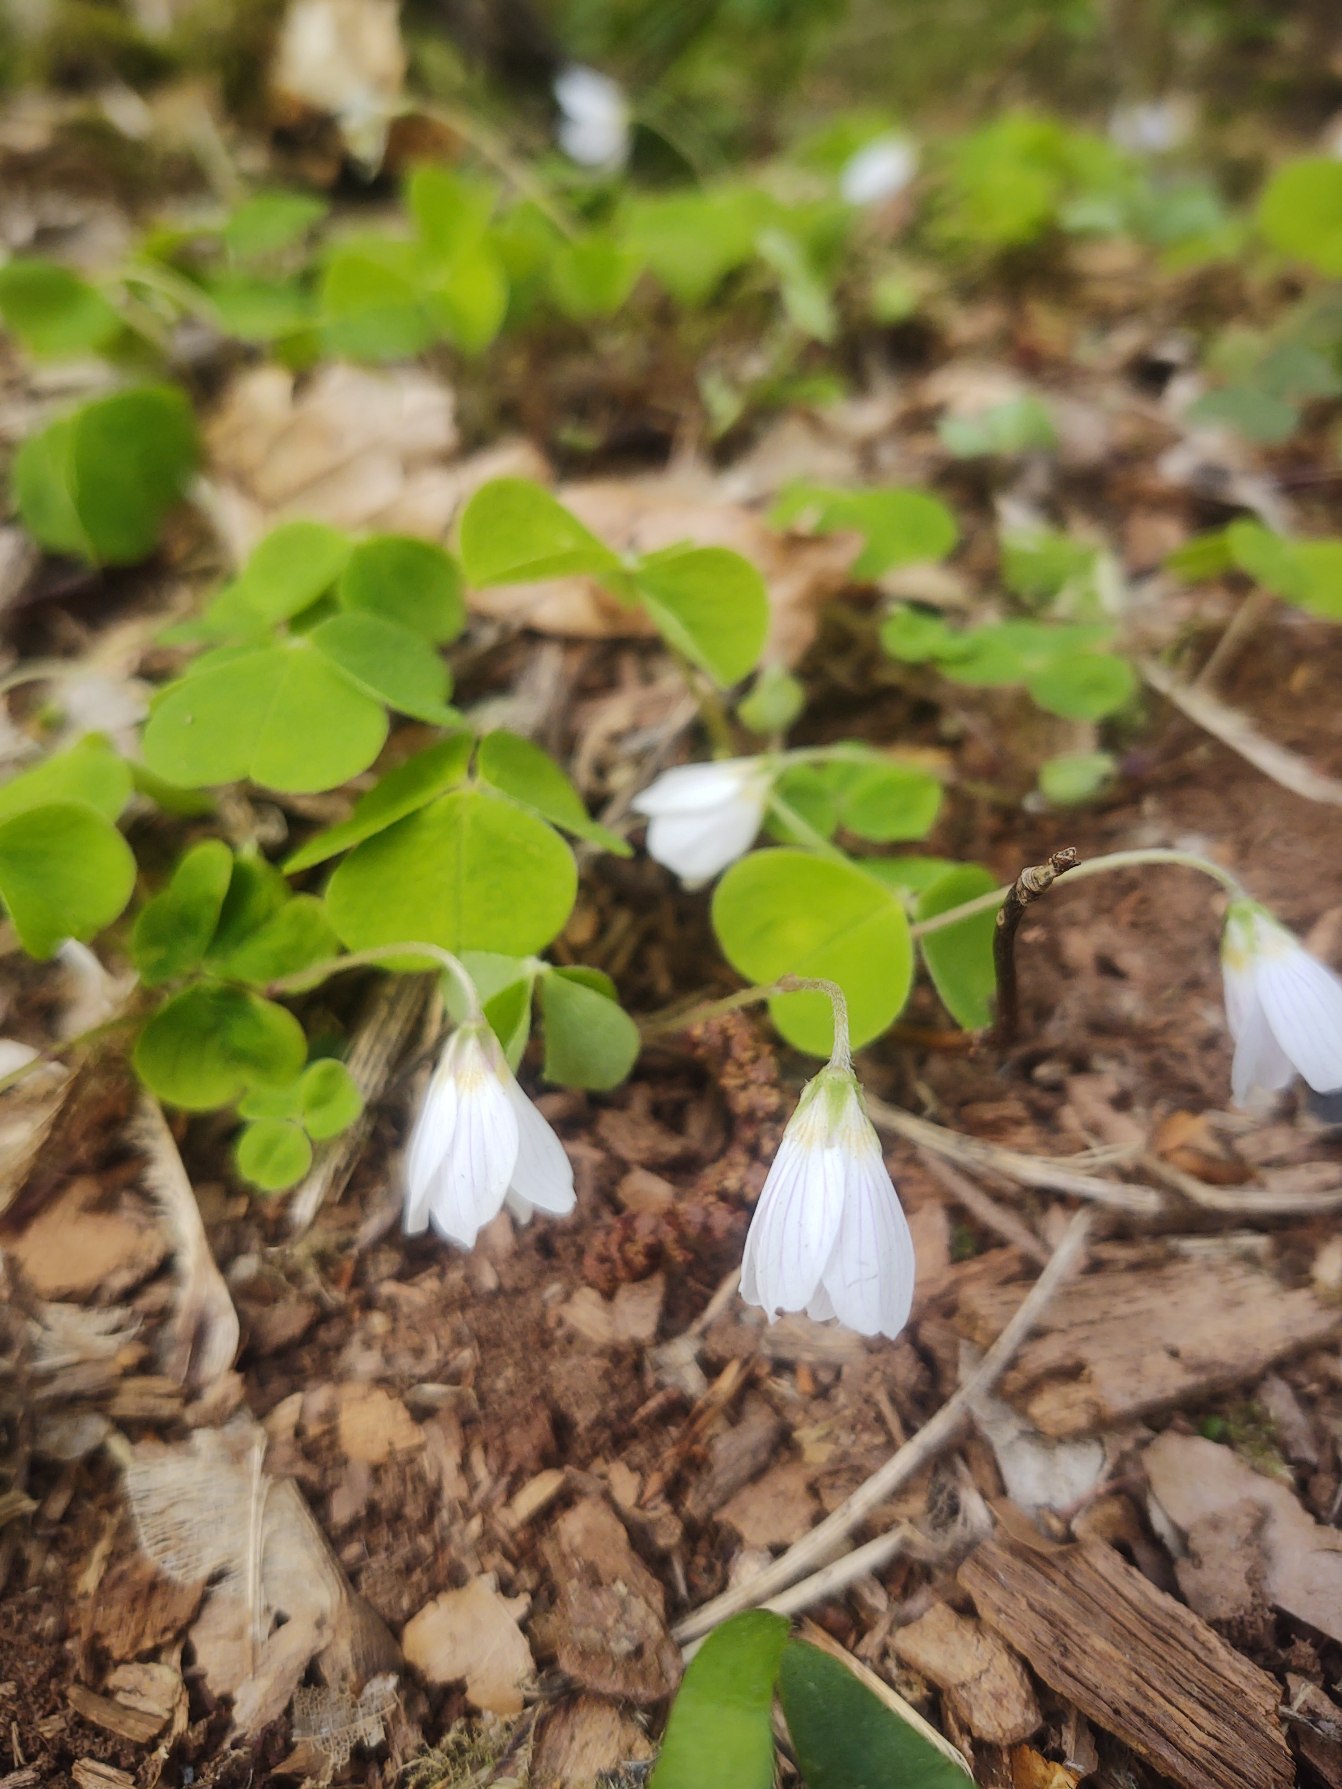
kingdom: Plantae
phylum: Tracheophyta
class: Magnoliopsida
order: Oxalidales
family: Oxalidaceae
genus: Oxalis
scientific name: Oxalis acetosella
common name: Skovsyre
